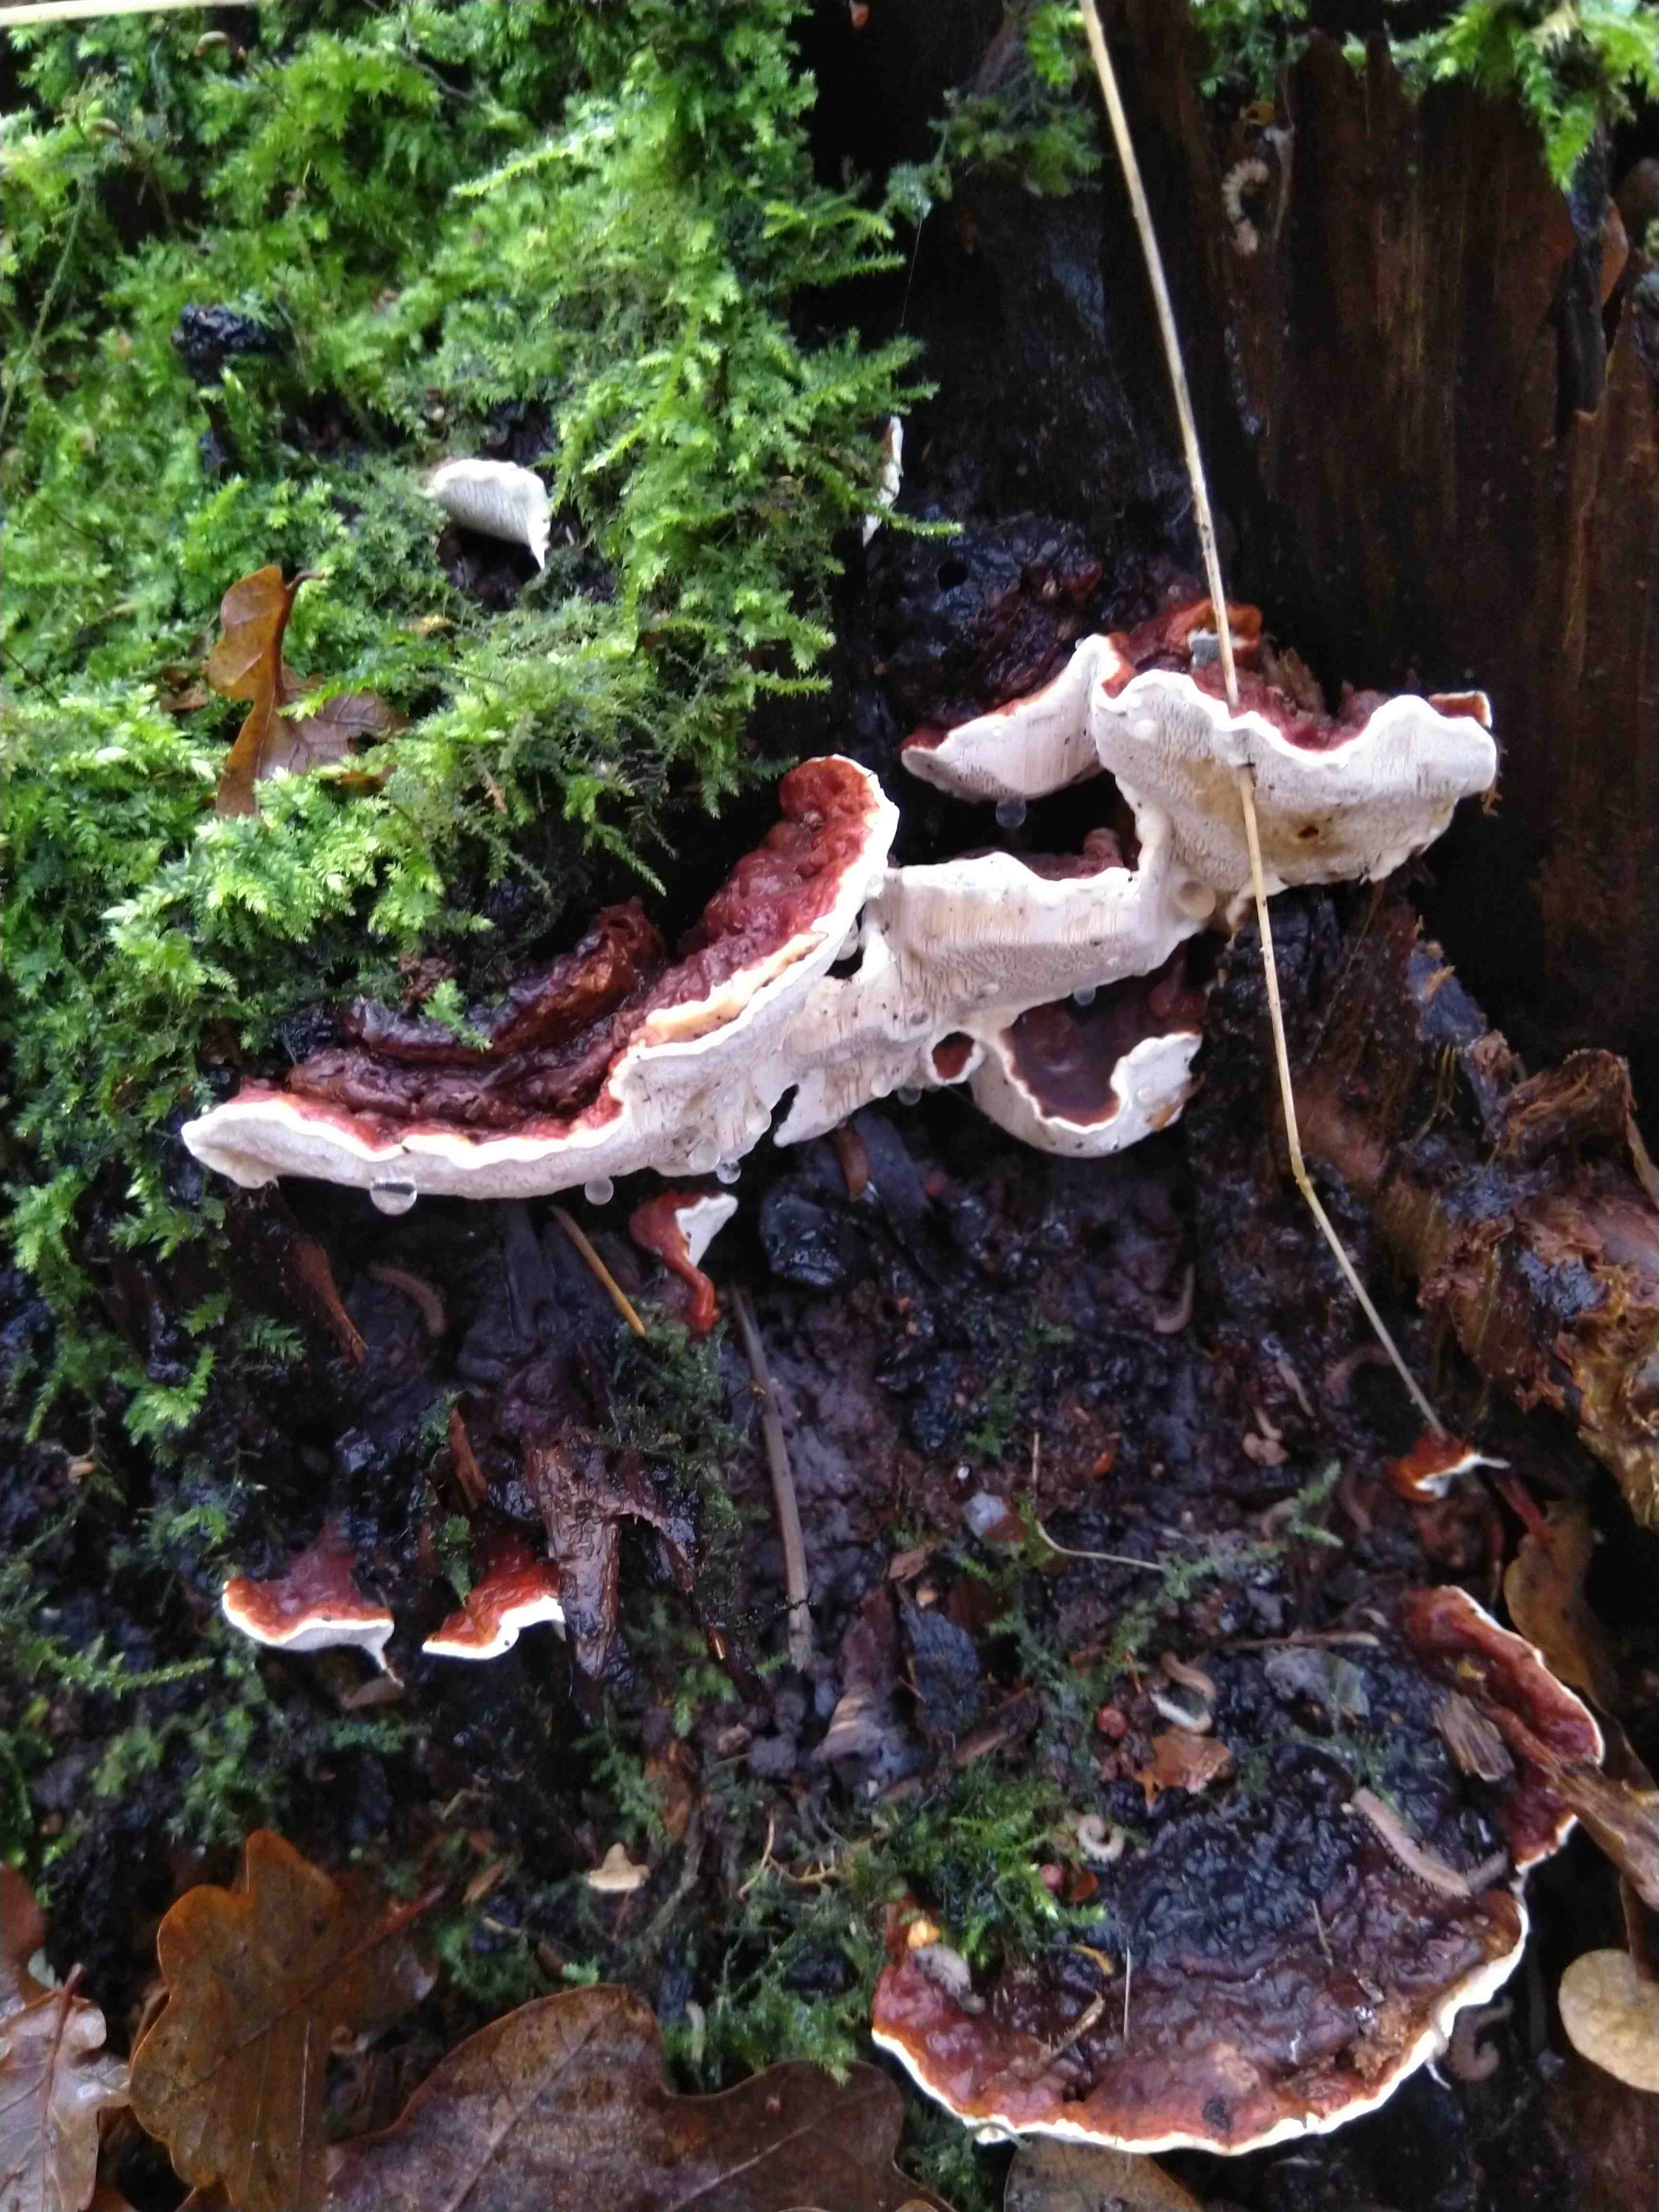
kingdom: Fungi
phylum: Basidiomycota
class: Agaricomycetes
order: Russulales
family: Bondarzewiaceae
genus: Heterobasidion
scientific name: Heterobasidion annosum
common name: almindelig rodfordærver
